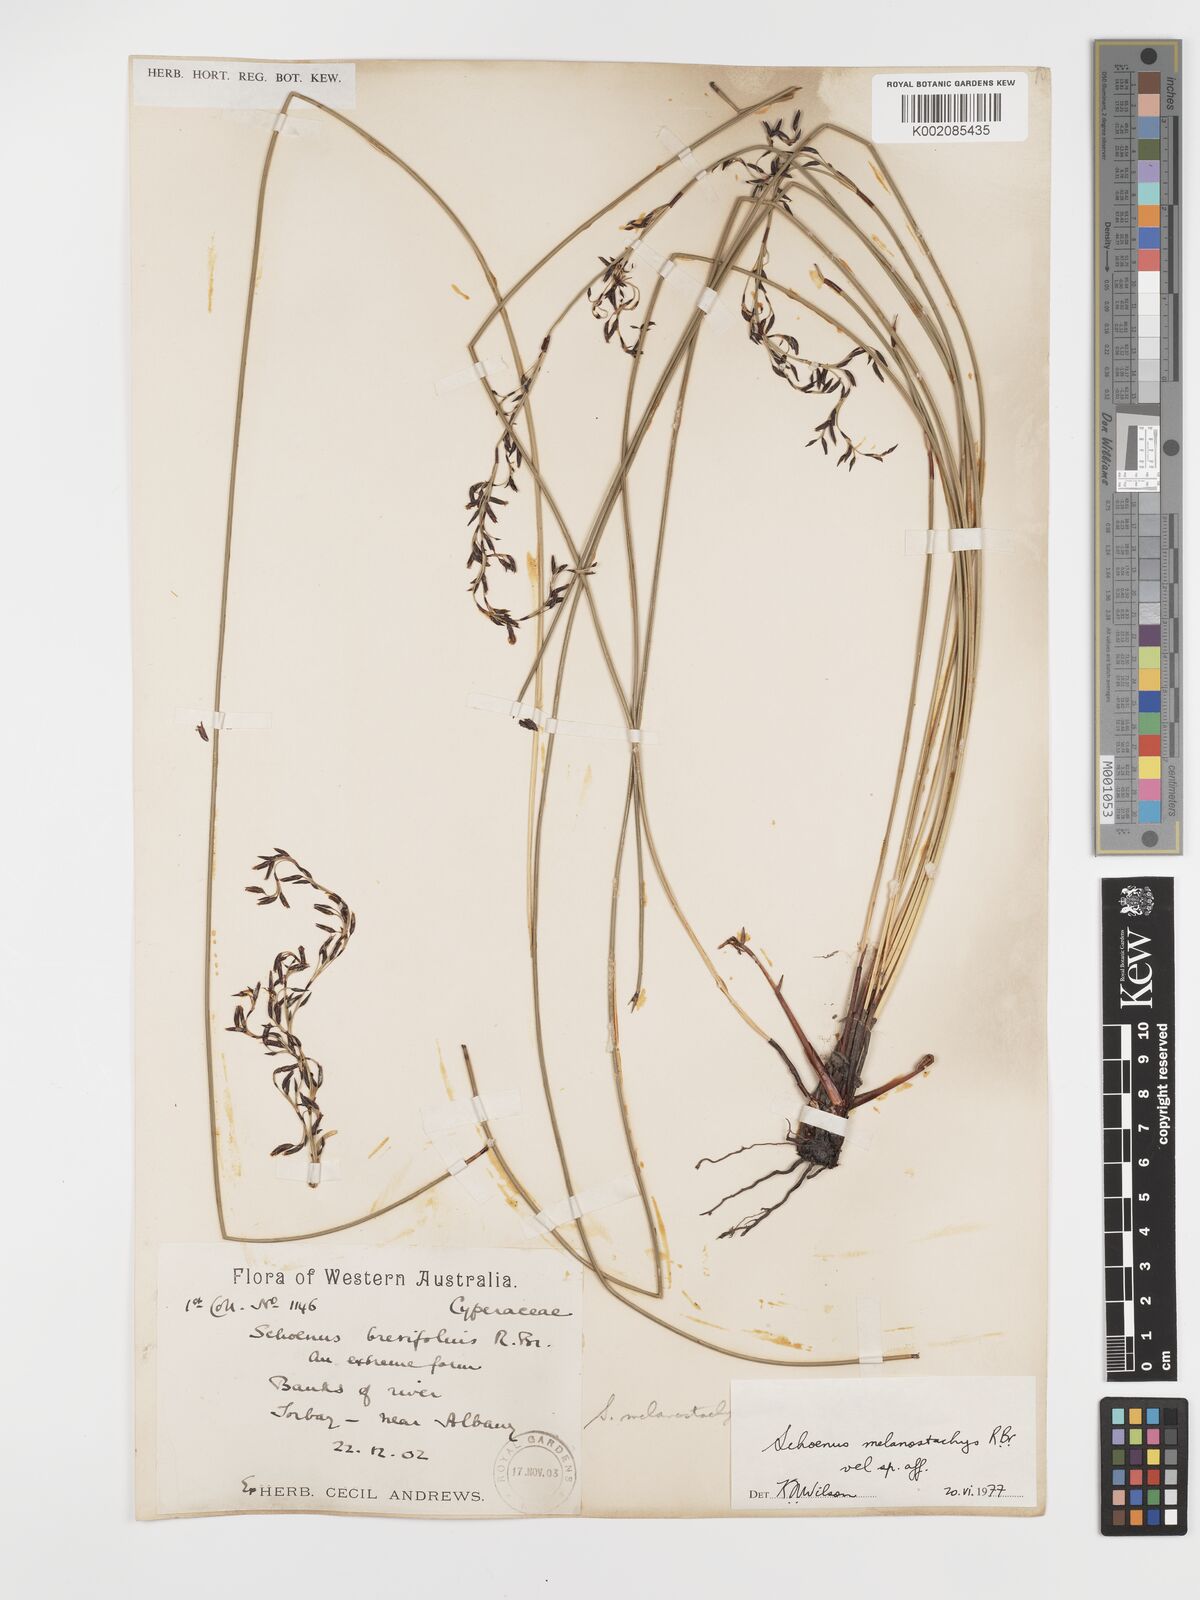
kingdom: Plantae
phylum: Tracheophyta
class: Liliopsida
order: Poales
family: Cyperaceae
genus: Schoenus
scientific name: Schoenus melanostachys
